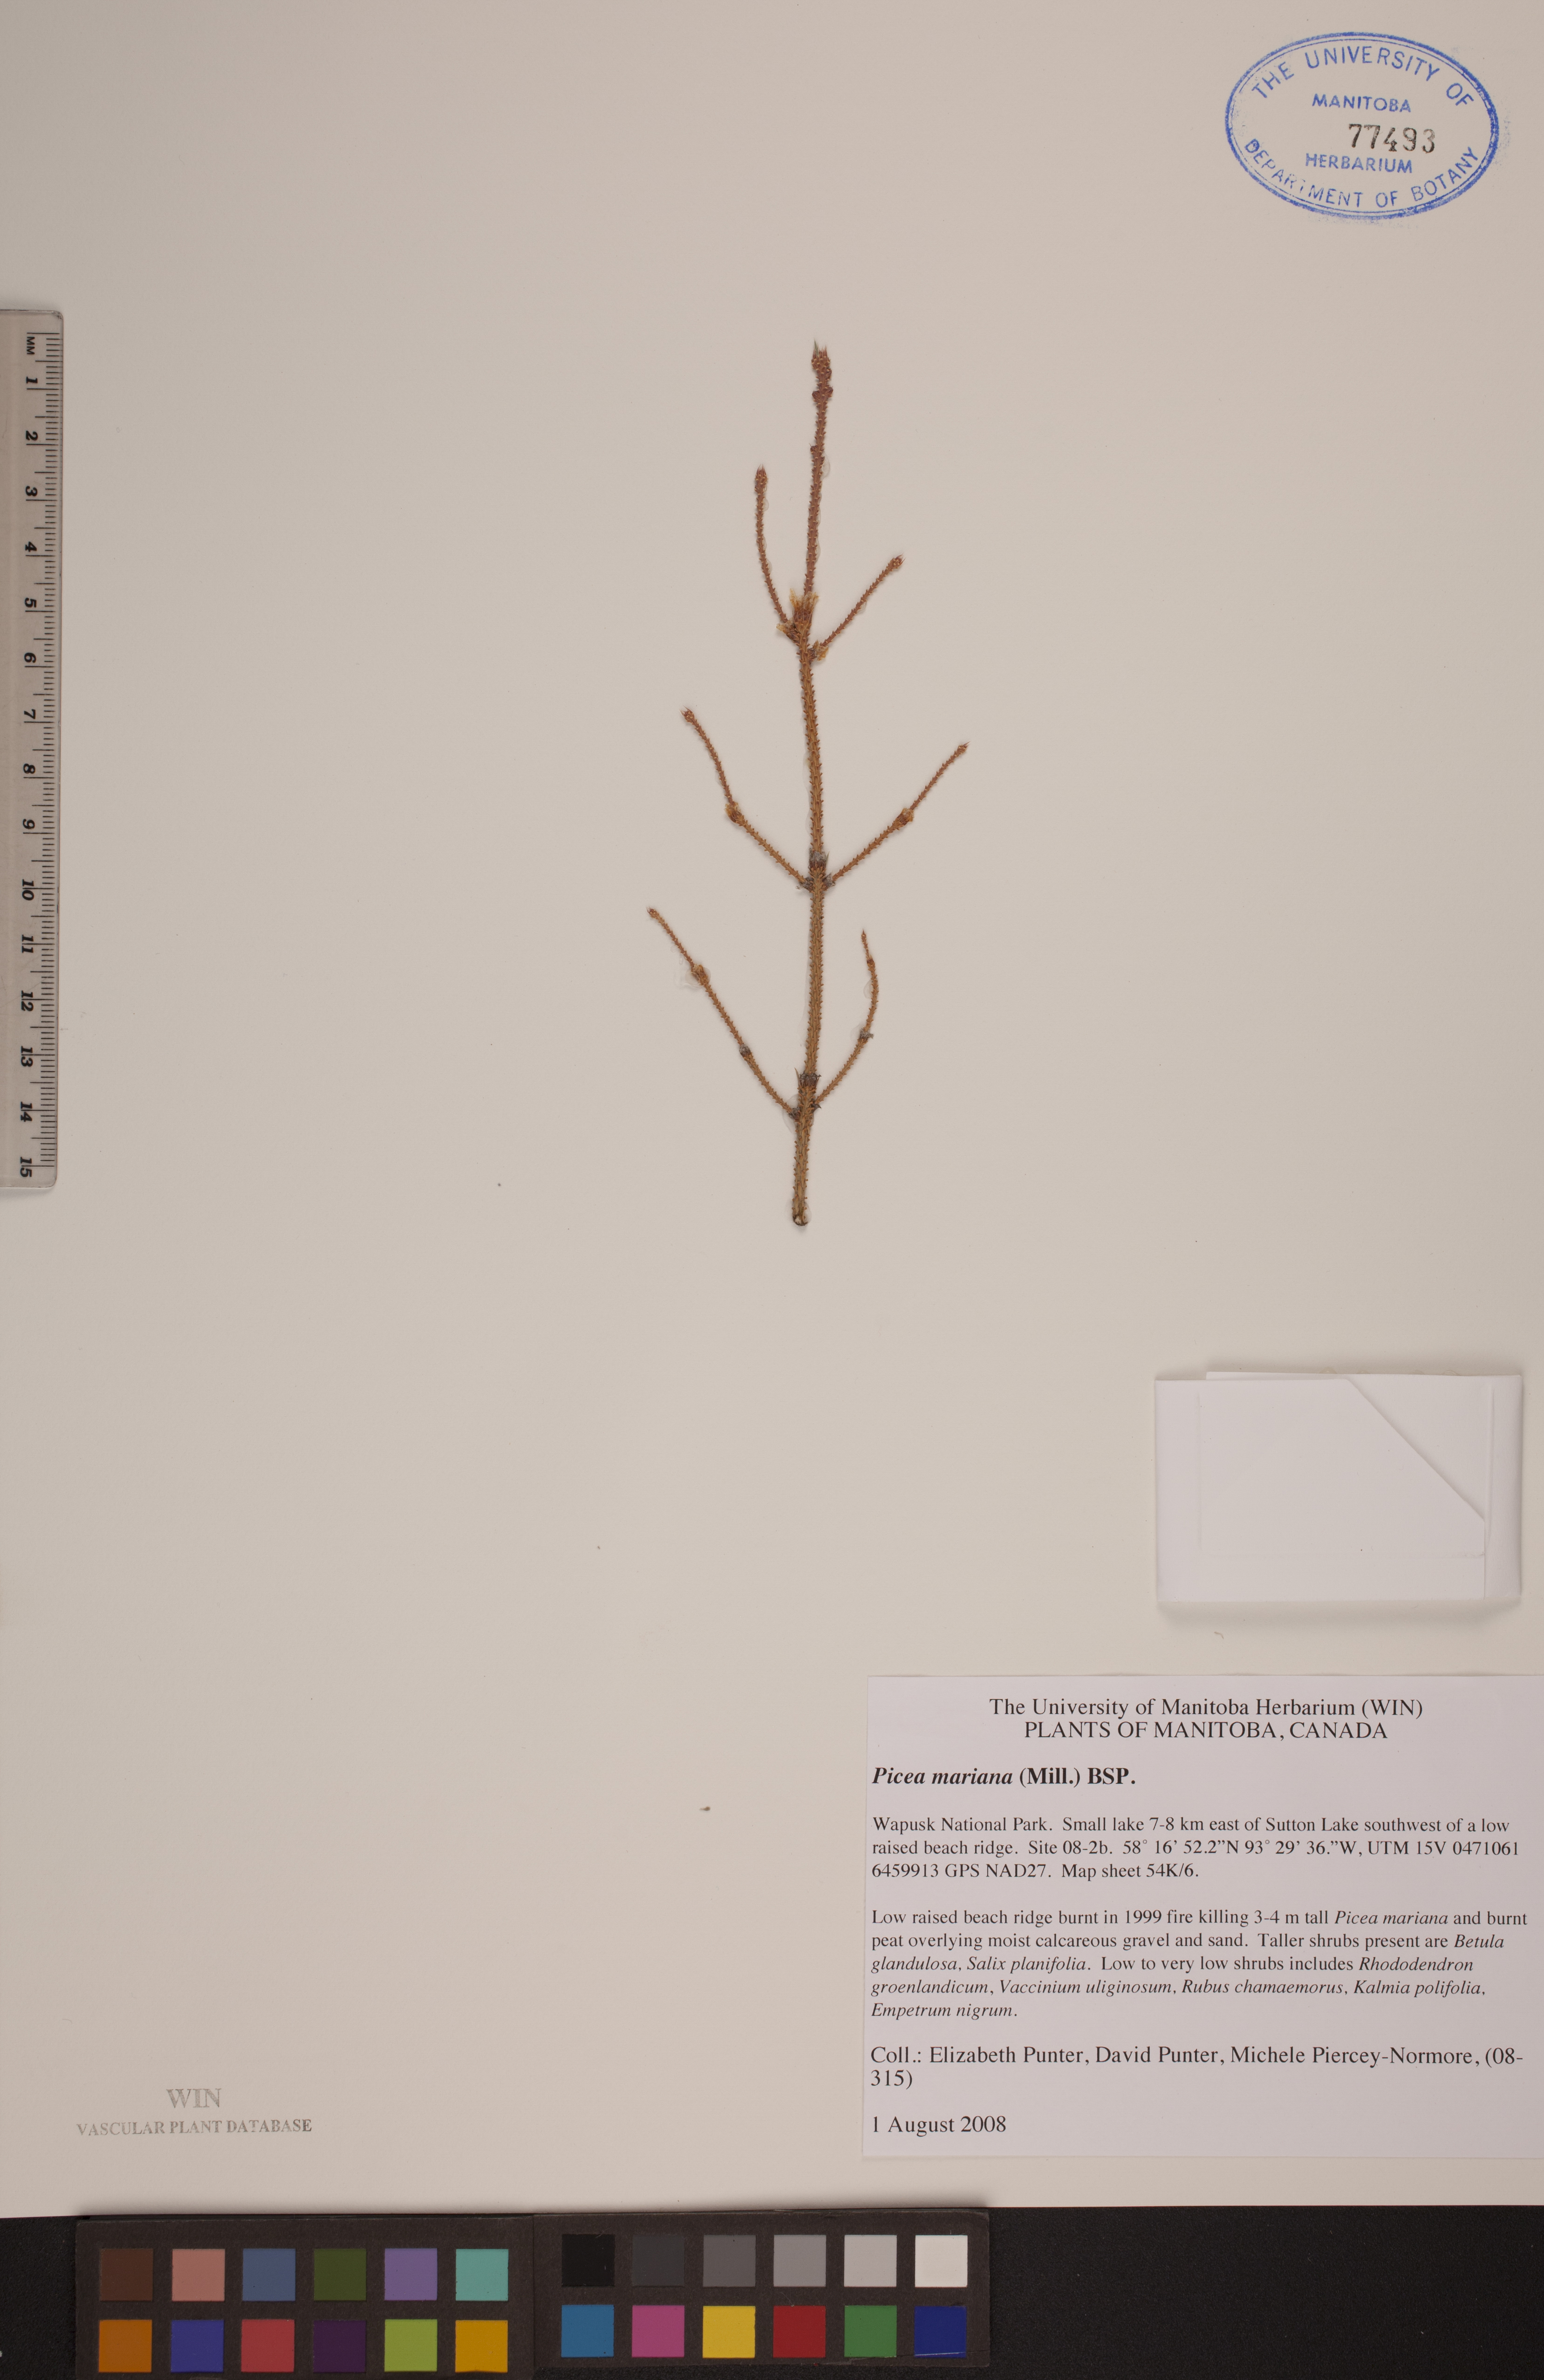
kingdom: Plantae
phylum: Tracheophyta
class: Pinopsida
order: Pinales
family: Pinaceae
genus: Picea
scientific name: Picea mariana
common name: Black spruce
